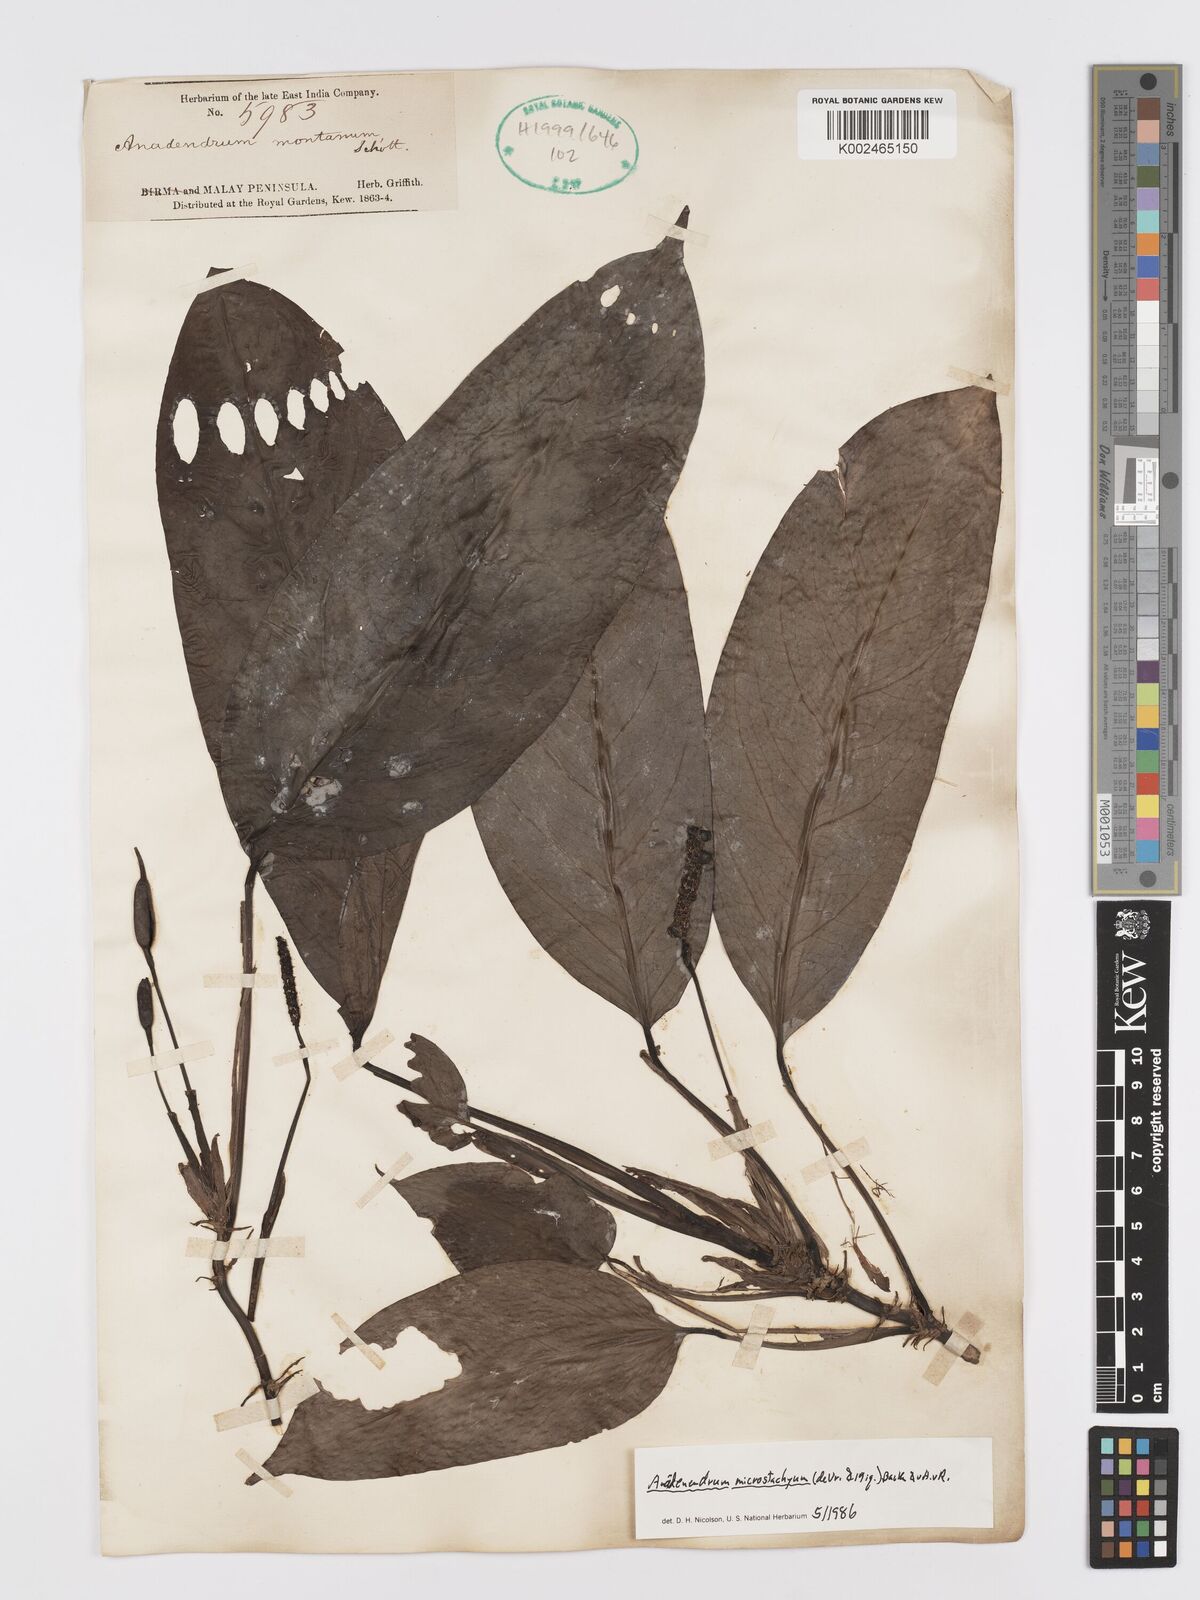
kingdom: Plantae
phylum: Tracheophyta
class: Liliopsida
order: Alismatales
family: Araceae
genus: Anadendrum
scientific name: Anadendrum microstachyum
